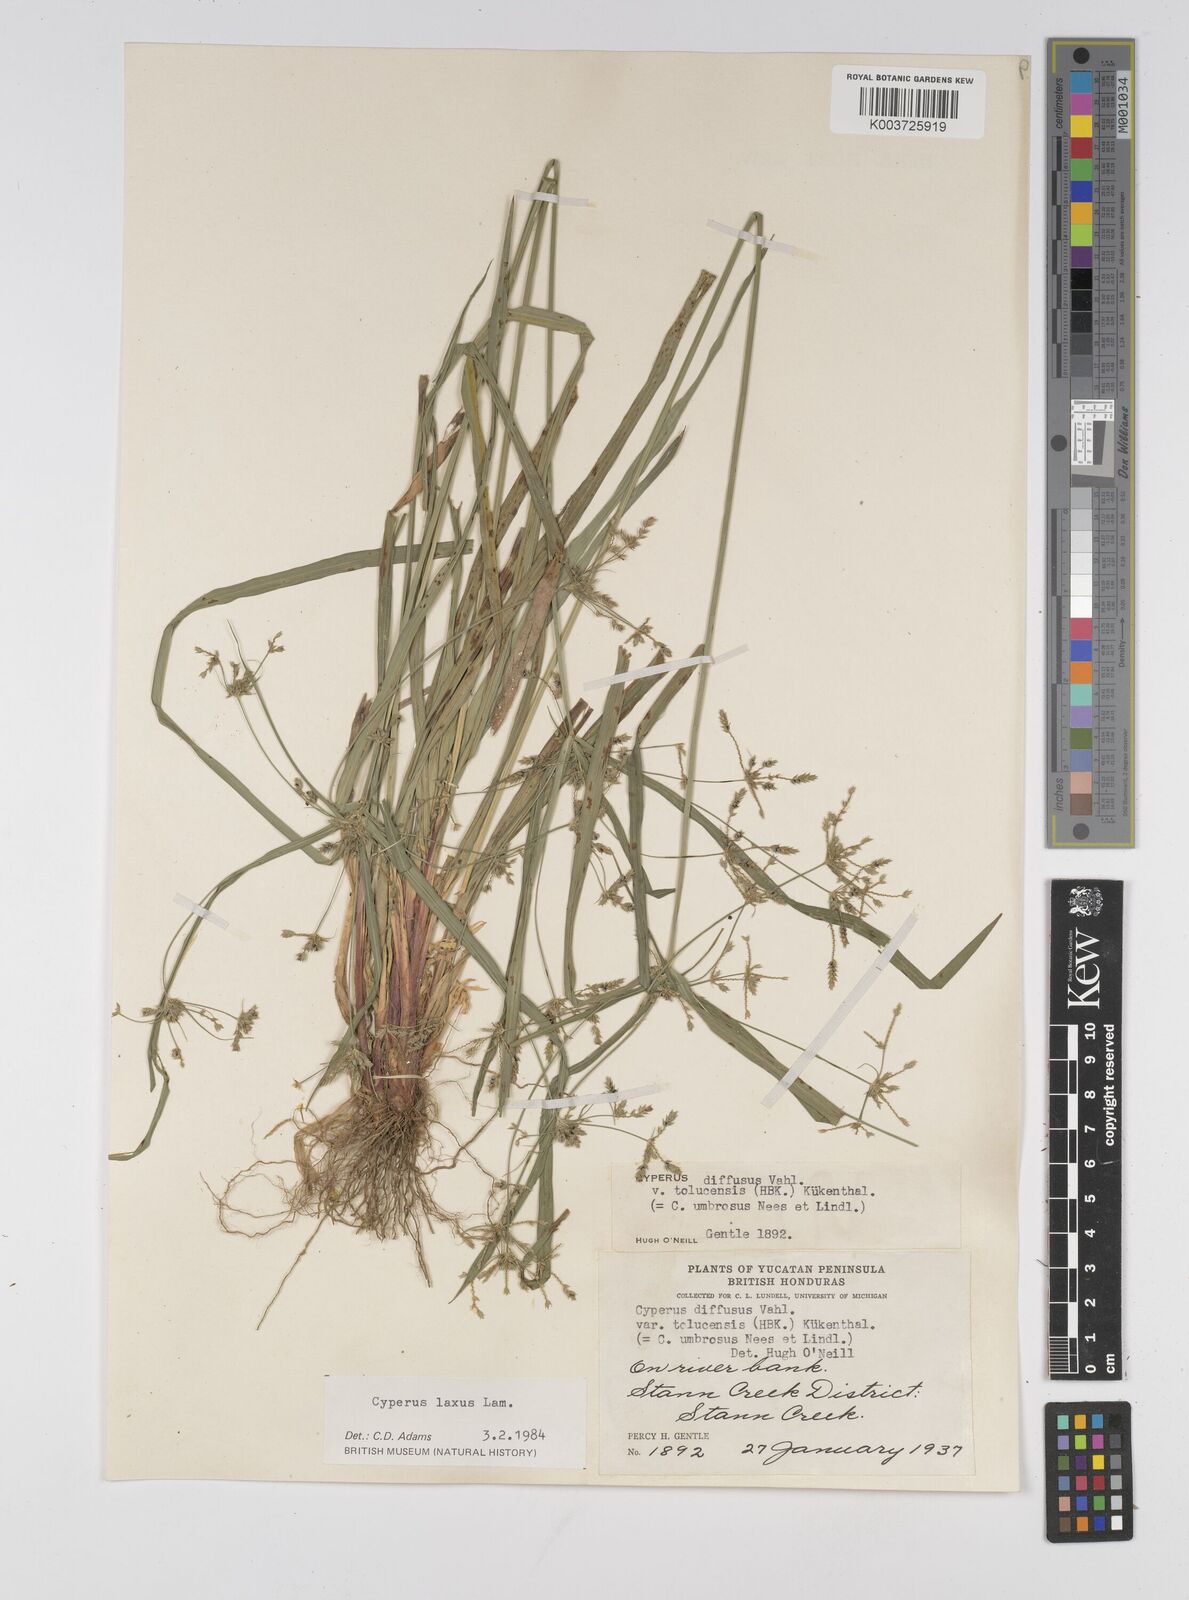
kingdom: Plantae
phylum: Tracheophyta
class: Liliopsida
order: Poales
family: Cyperaceae
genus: Cyperus
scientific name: Cyperus chalaranthus
